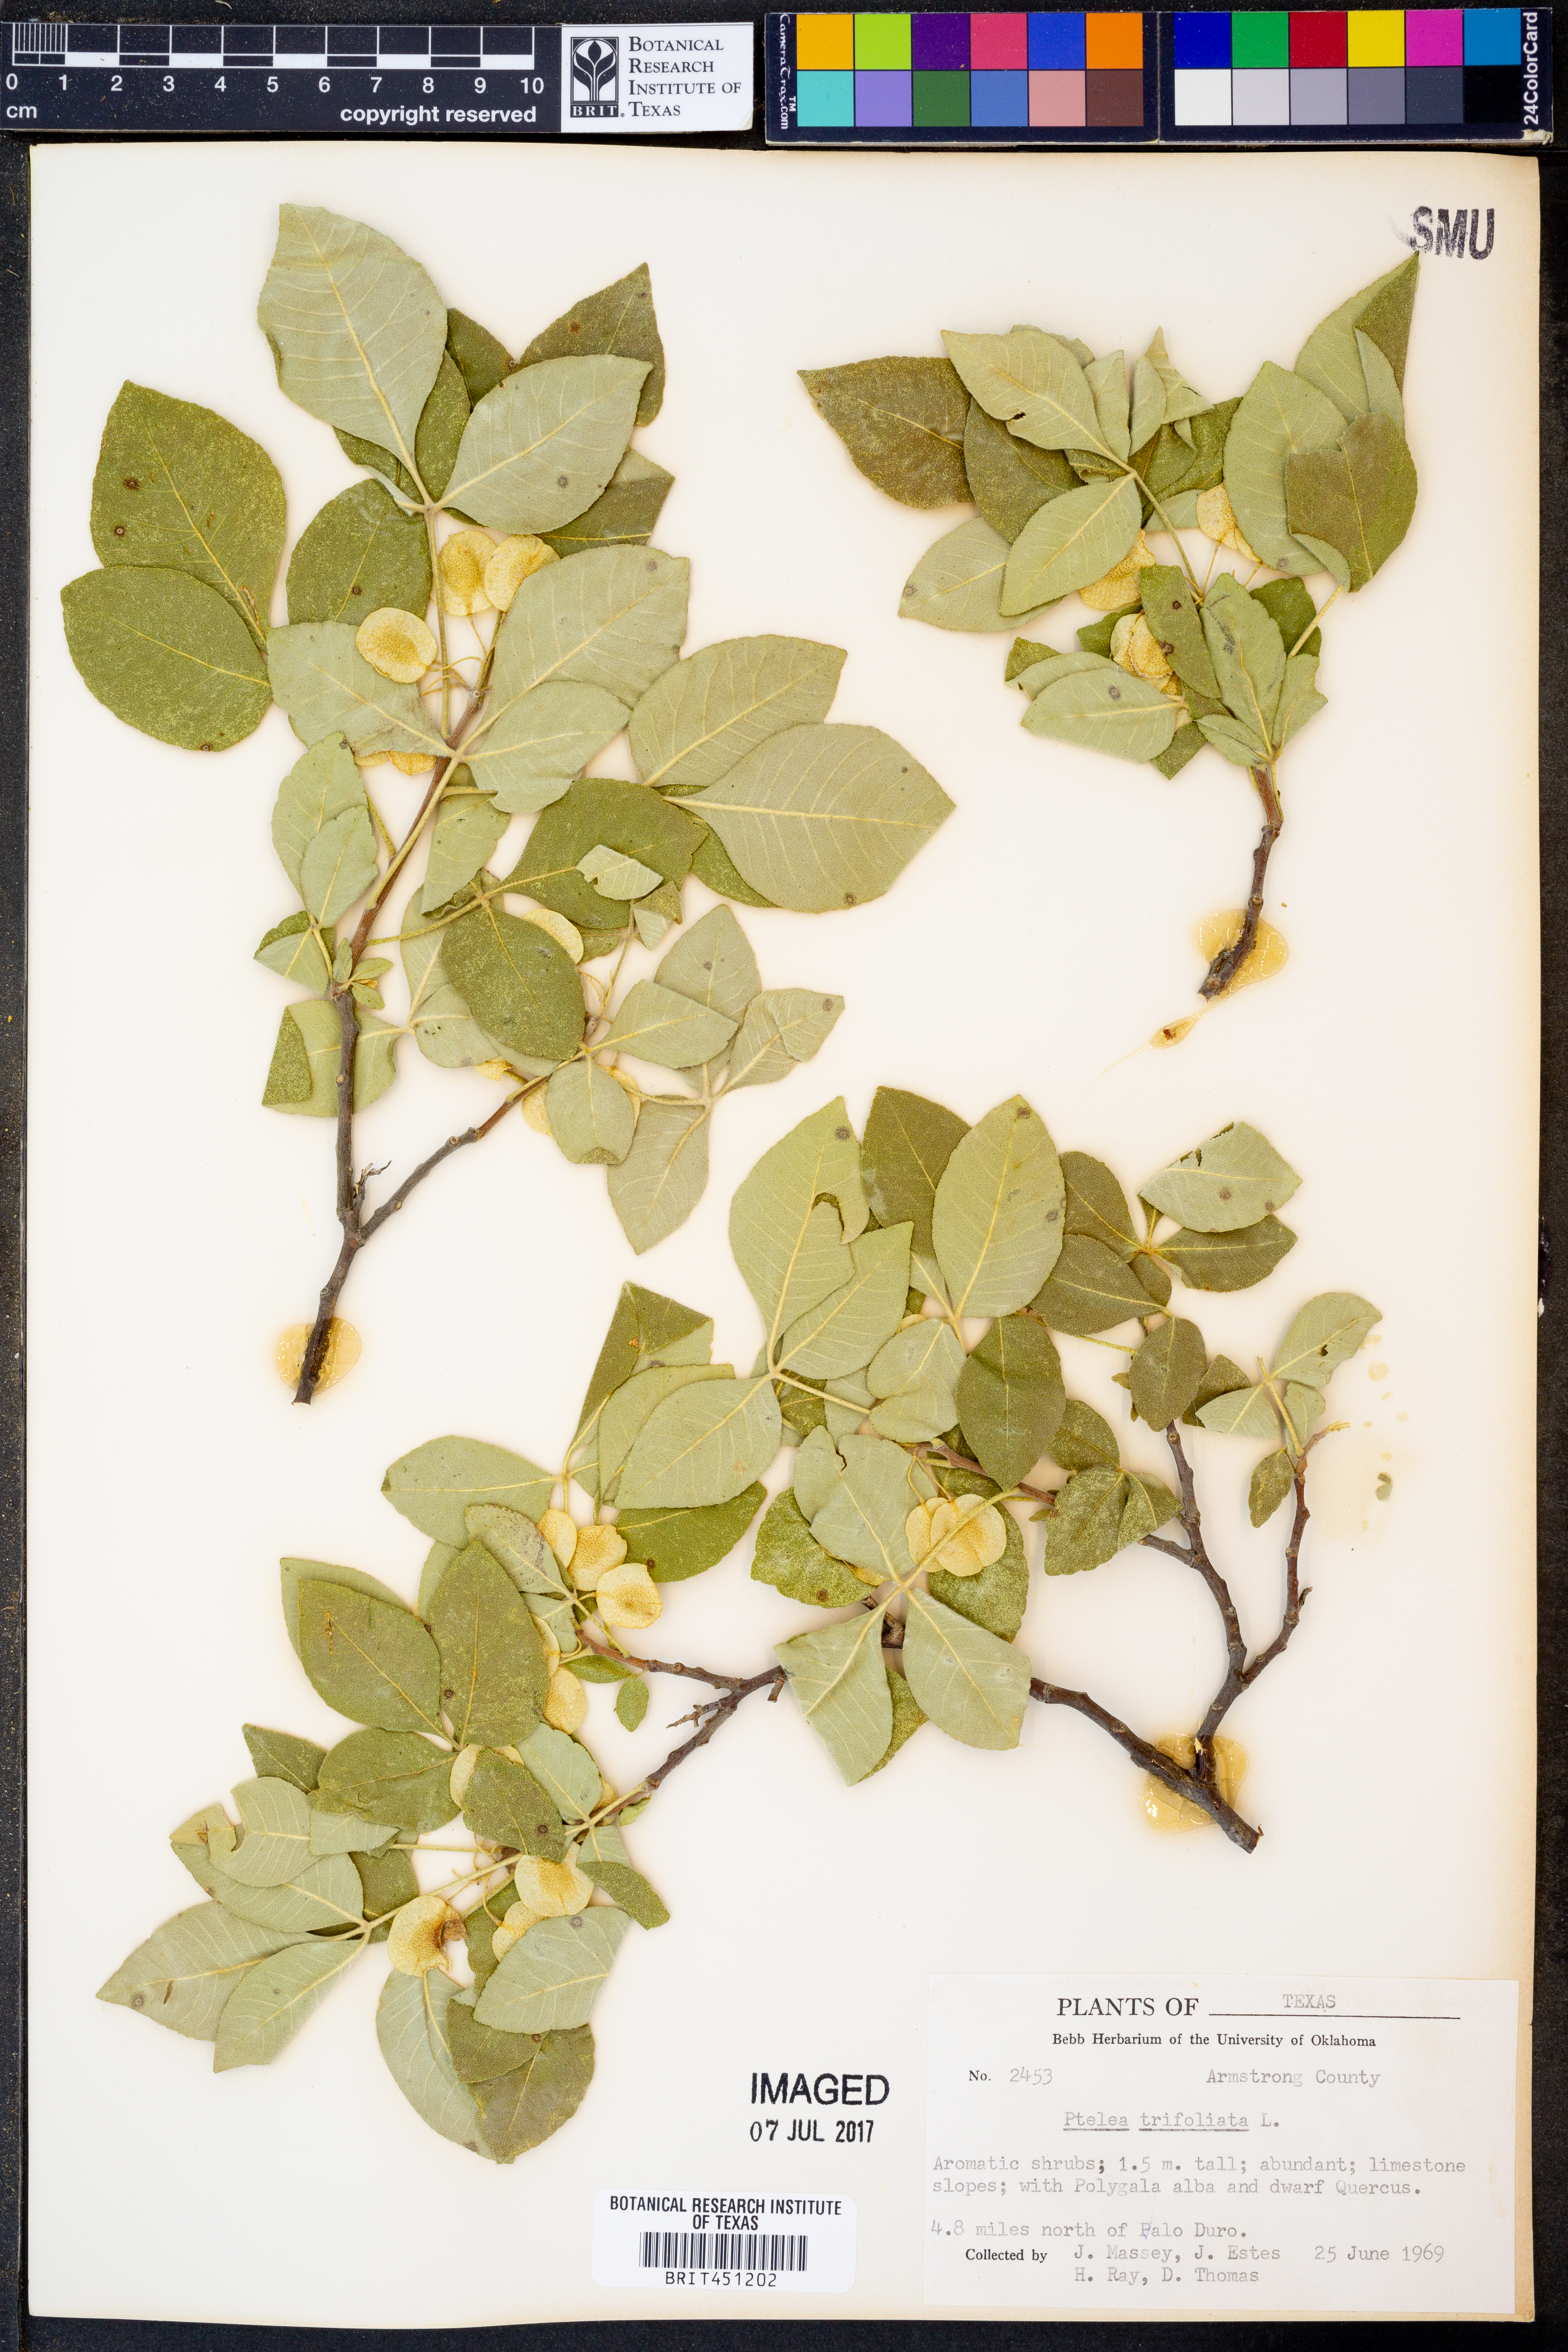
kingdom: Plantae
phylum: Tracheophyta
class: Magnoliopsida
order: Sapindales
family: Rutaceae
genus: Ptelea
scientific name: Ptelea trifoliata
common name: Common hop-tree
